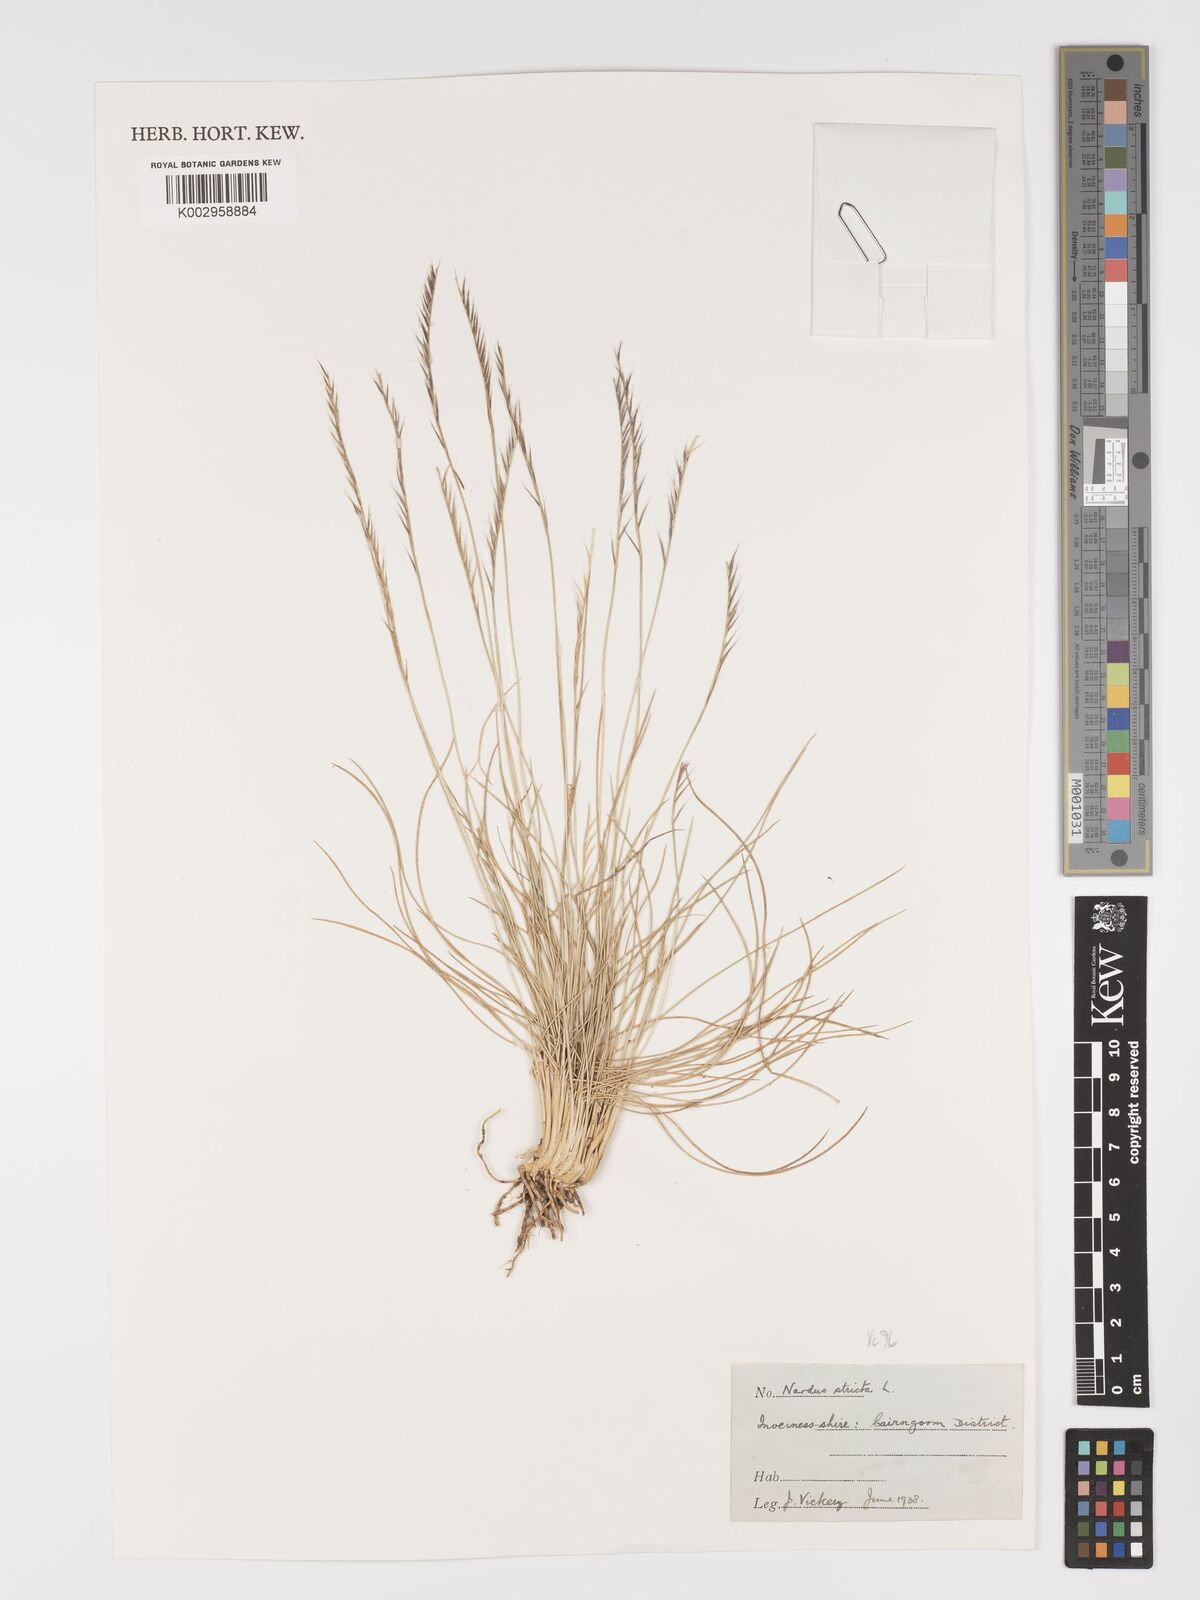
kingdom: Plantae
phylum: Tracheophyta
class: Liliopsida
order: Poales
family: Poaceae
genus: Nardus
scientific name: Nardus stricta
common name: Mat-grass
